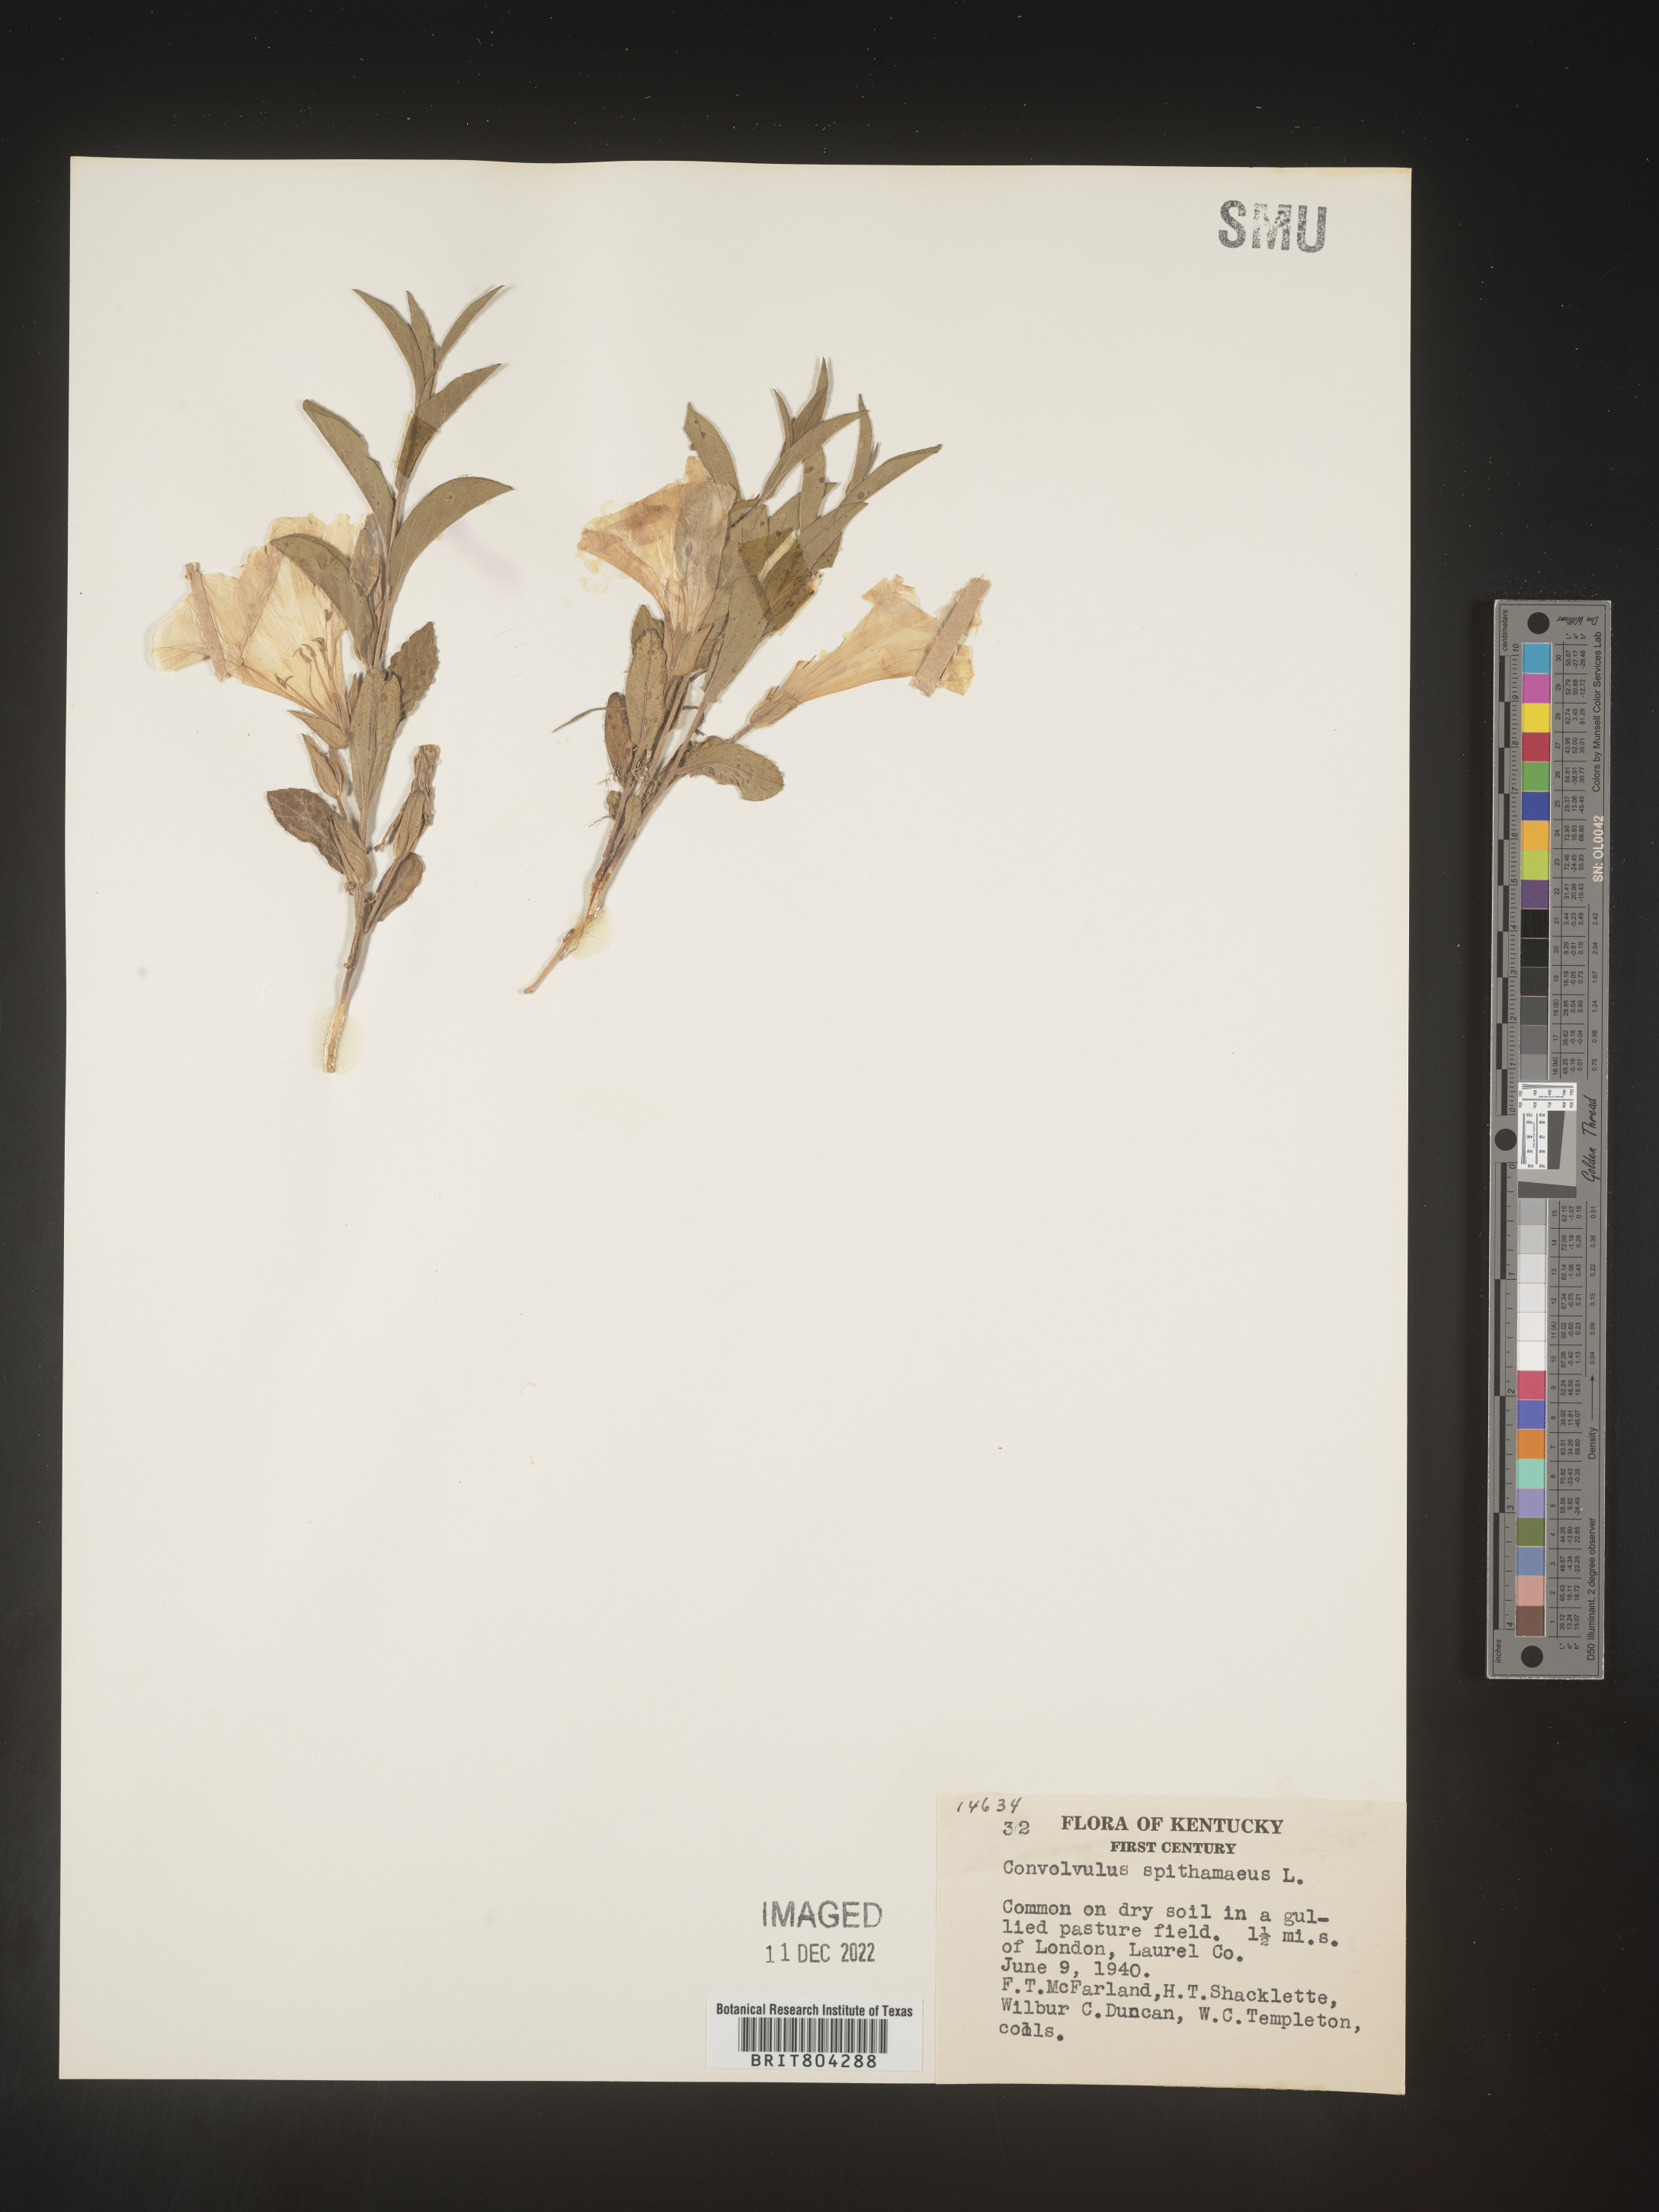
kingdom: Plantae
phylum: Tracheophyta
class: Magnoliopsida
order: Solanales
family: Convolvulaceae
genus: Calystegia
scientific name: Calystegia
